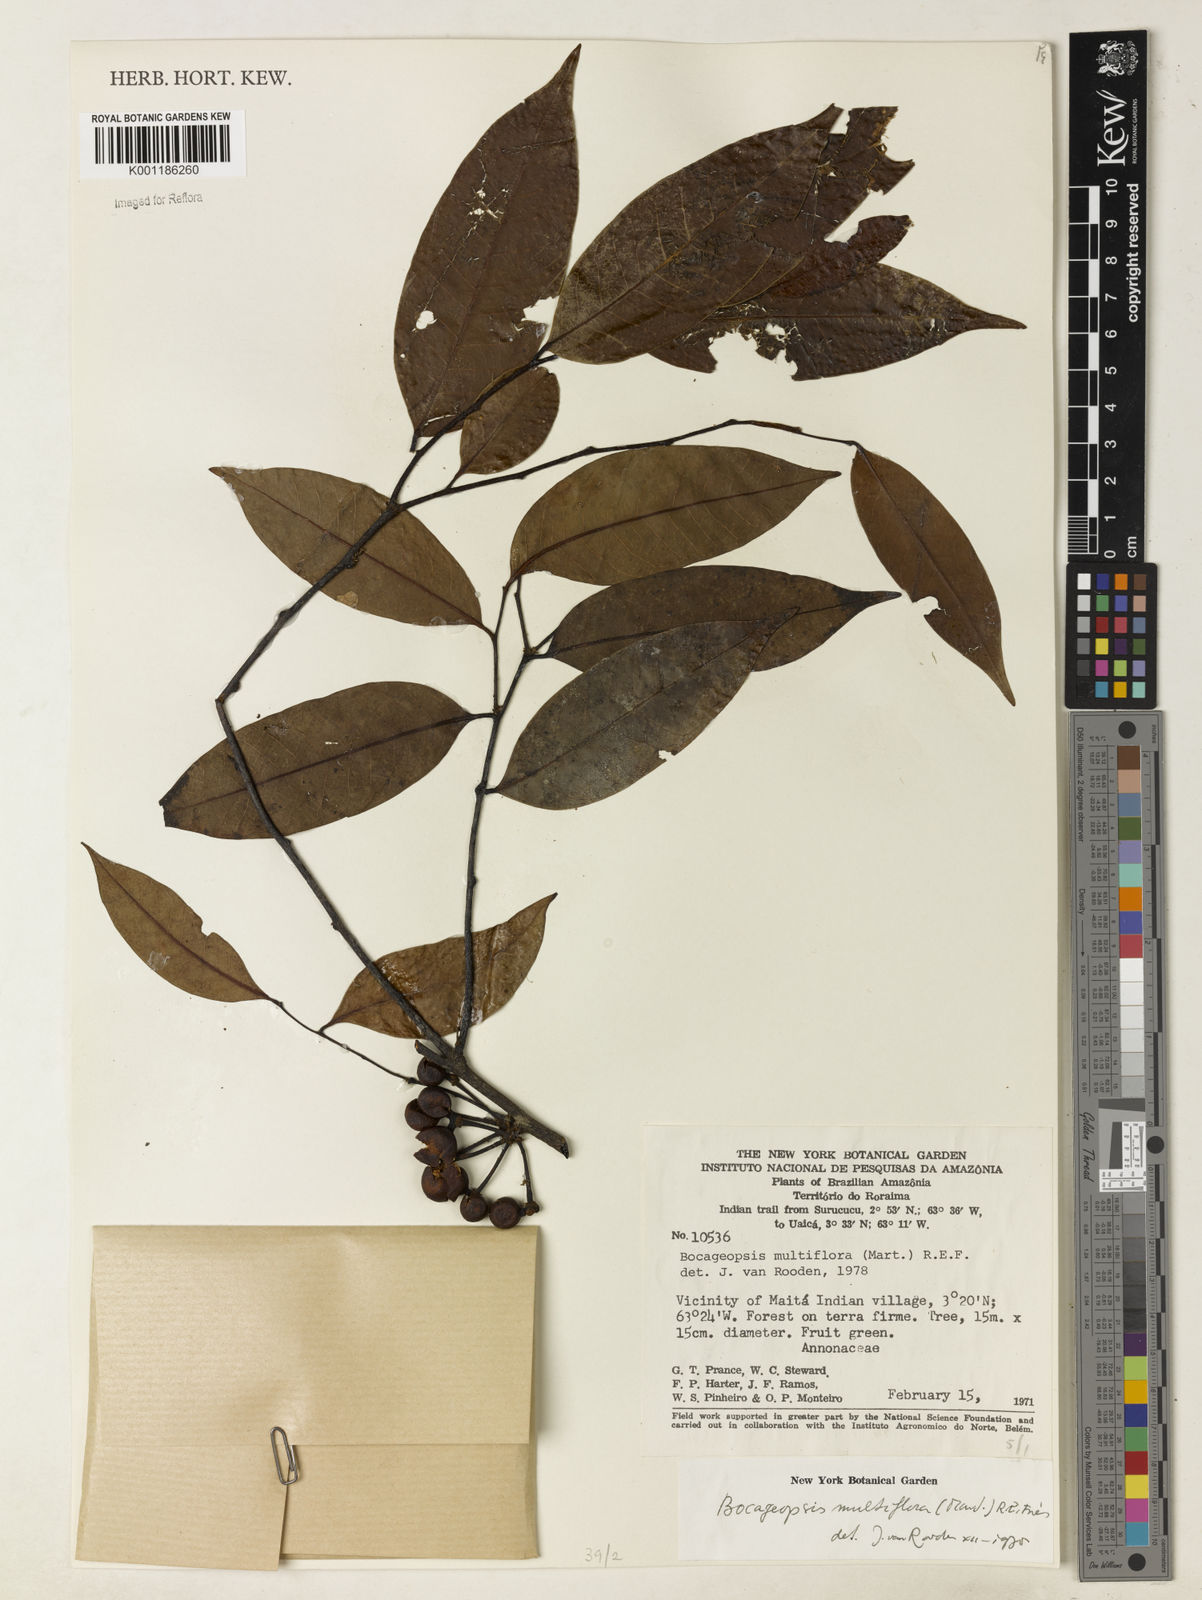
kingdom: Plantae
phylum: Tracheophyta
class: Magnoliopsida
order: Magnoliales
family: Annonaceae
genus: Bocageopsis
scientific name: Bocageopsis multiflora
